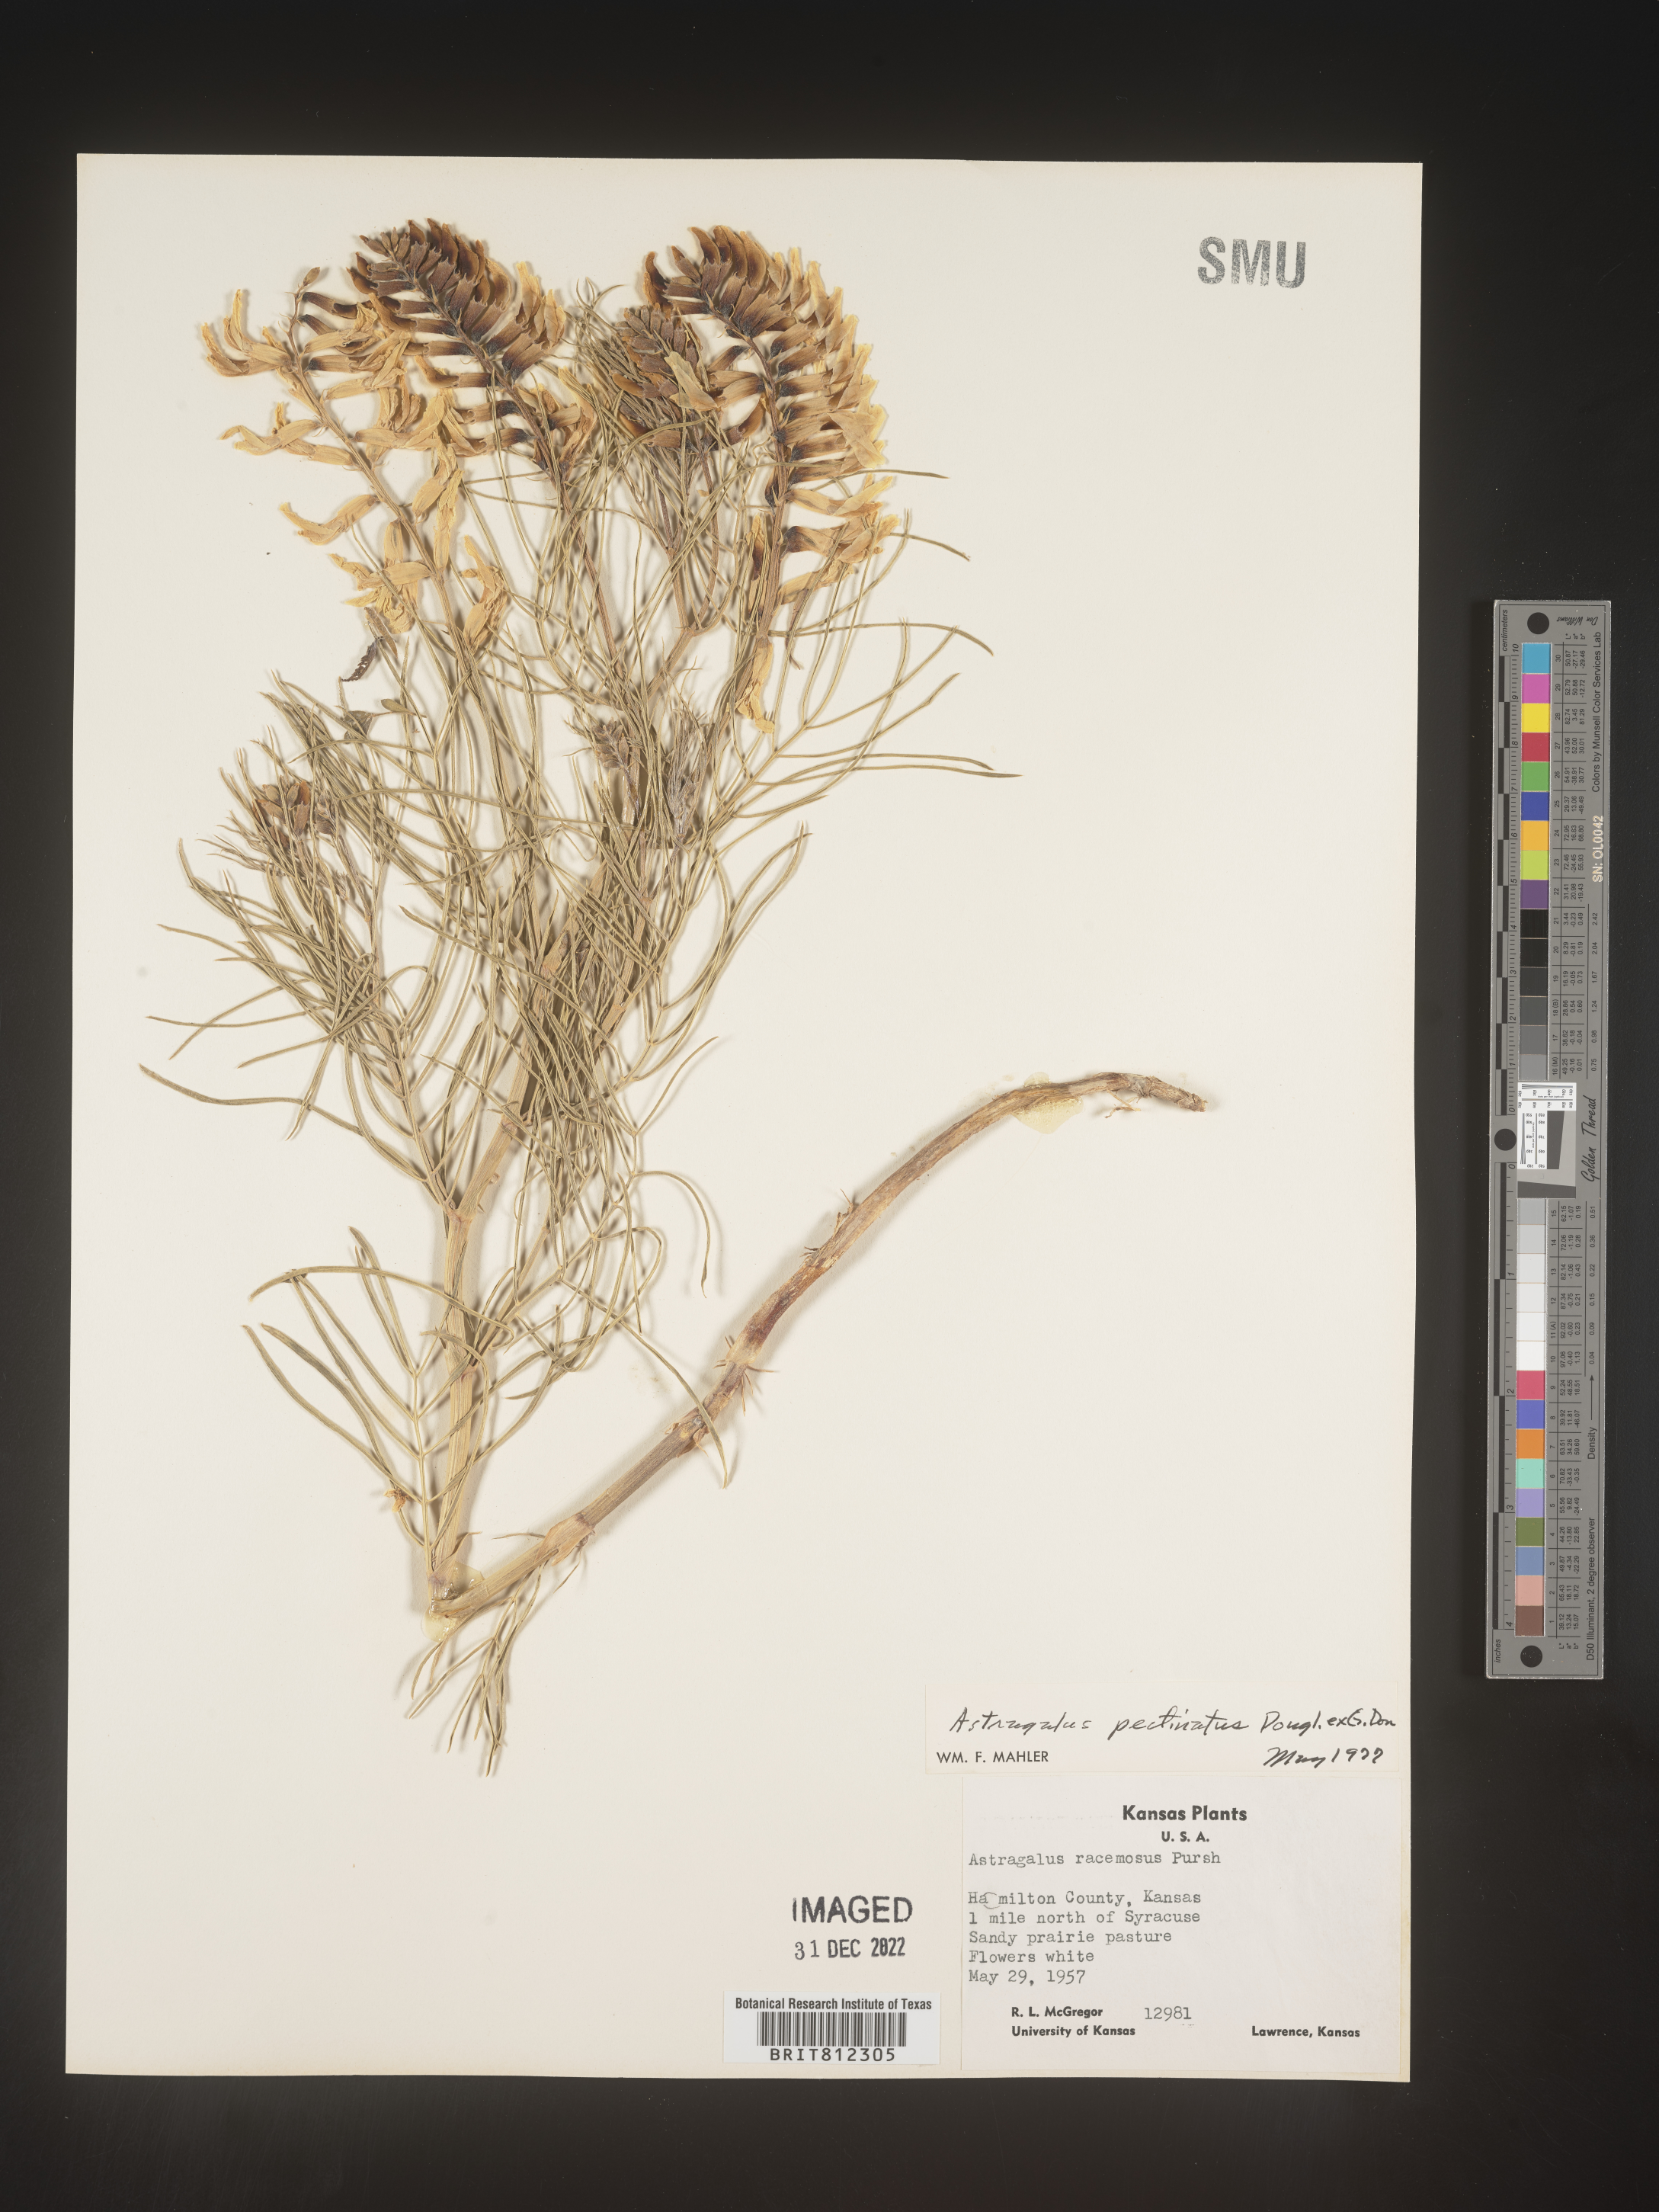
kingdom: Plantae
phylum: Tracheophyta
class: Magnoliopsida
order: Fabales
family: Fabaceae
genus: Astragalus
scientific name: Astragalus
